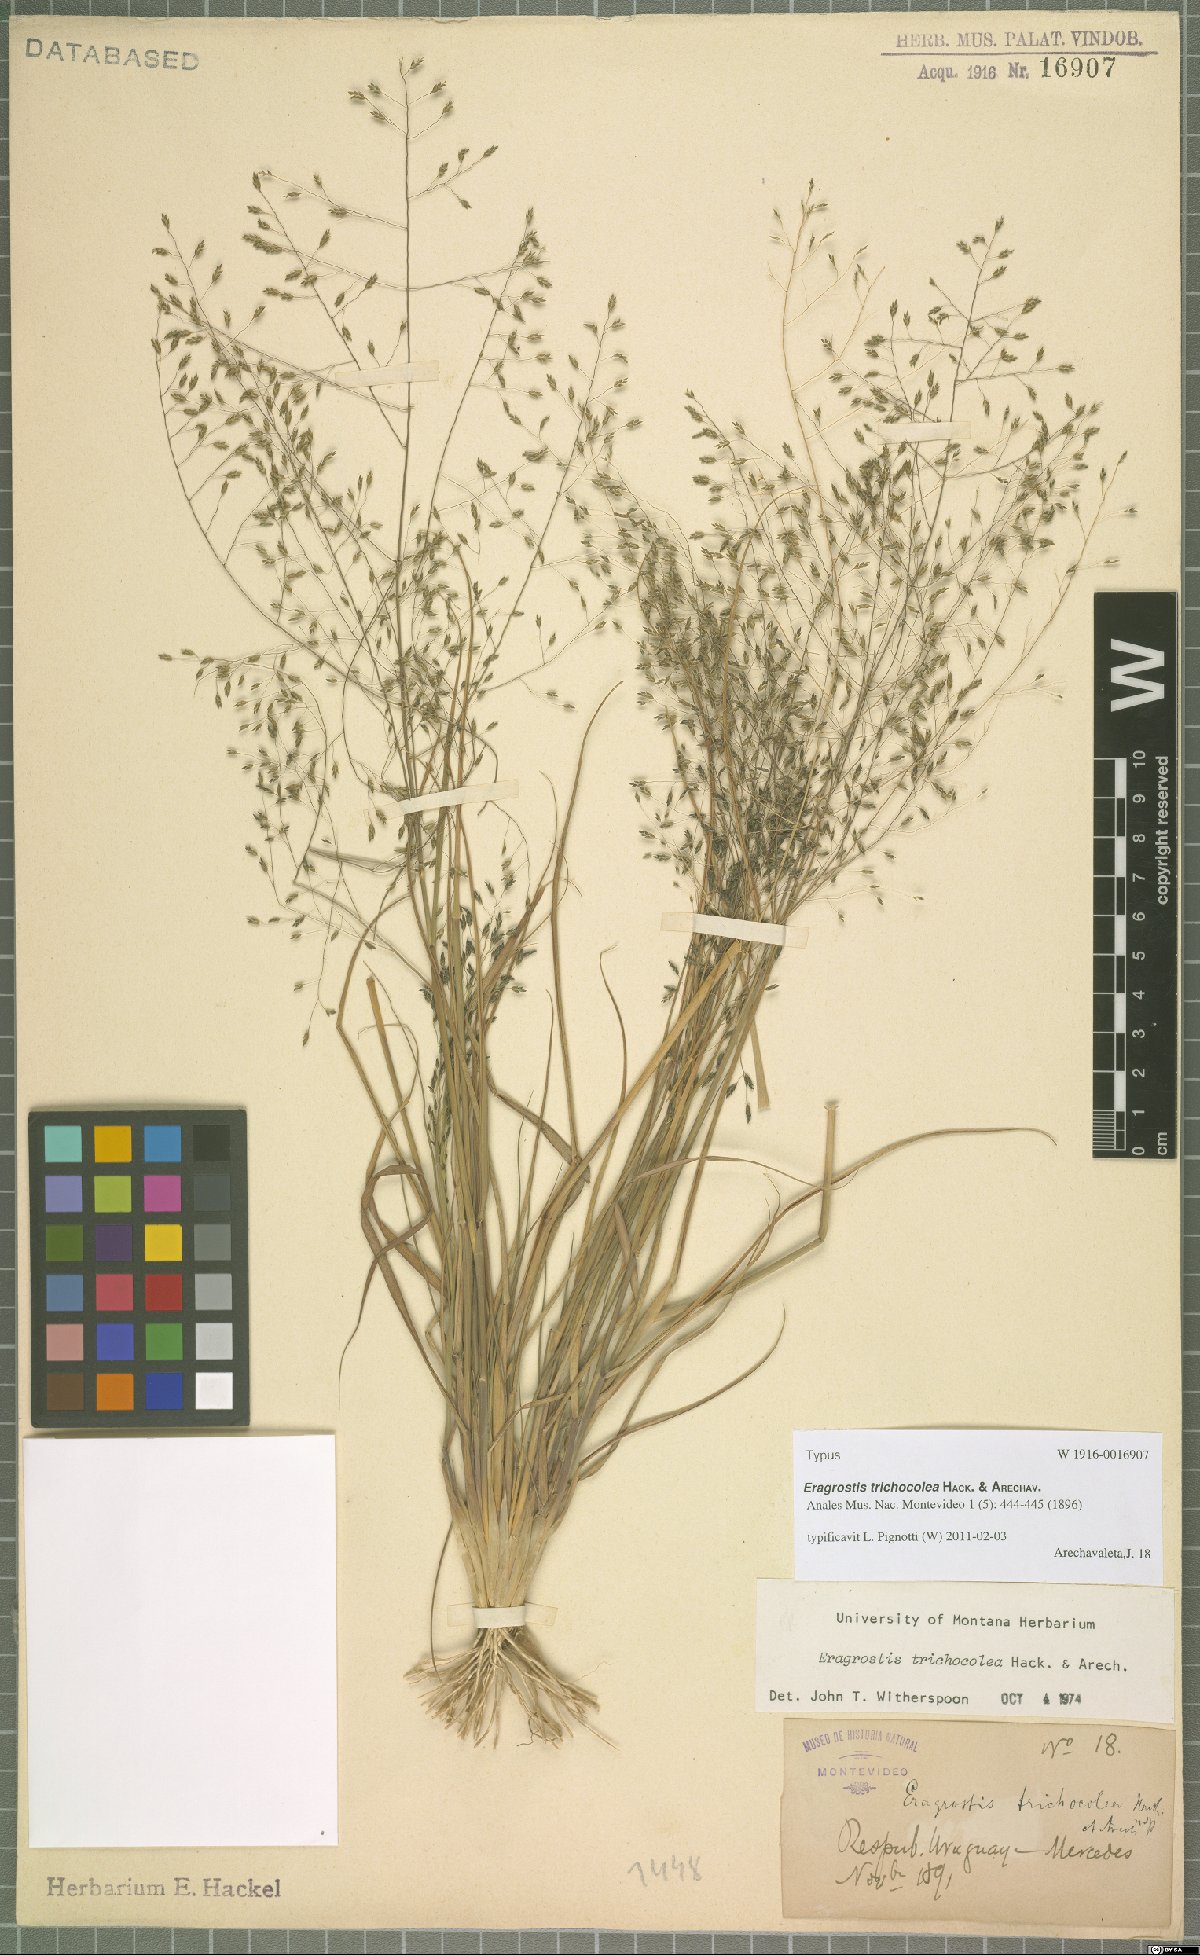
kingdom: Plantae
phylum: Tracheophyta
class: Liliopsida
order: Poales
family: Poaceae
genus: Eragrostis
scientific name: Eragrostis trichocolea
